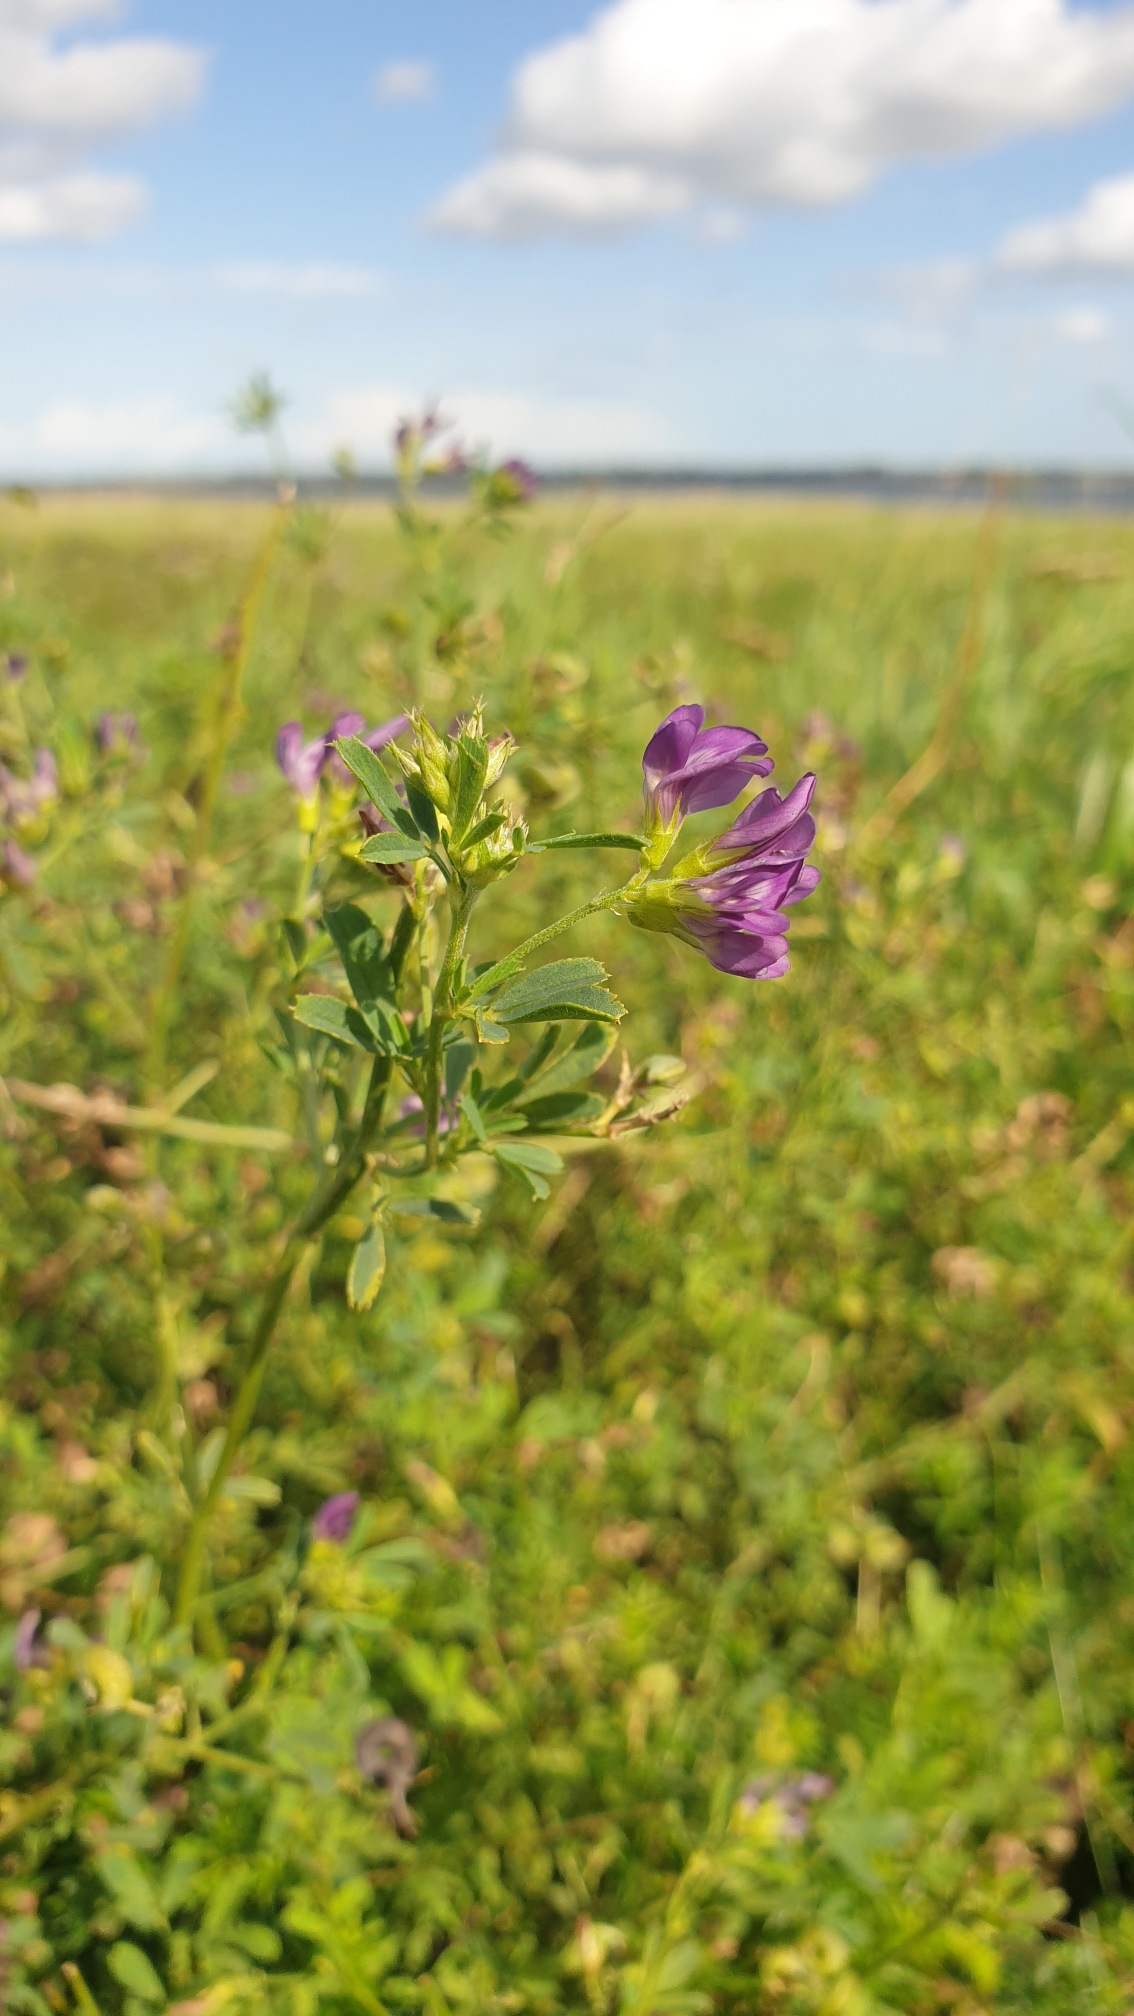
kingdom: Plantae
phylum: Tracheophyta
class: Magnoliopsida
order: Fabales
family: Fabaceae
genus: Medicago
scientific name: Medicago sativa
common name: Lucerne
